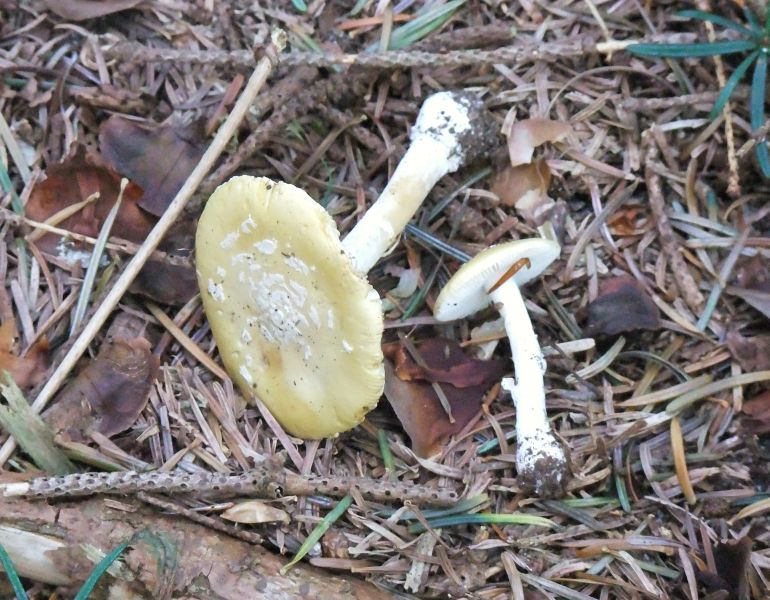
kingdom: Fungi
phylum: Basidiomycota
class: Agaricomycetes
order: Agaricales
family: Amanitaceae
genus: Amanita
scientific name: Amanita gemmata
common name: okkergul fluesvamp
